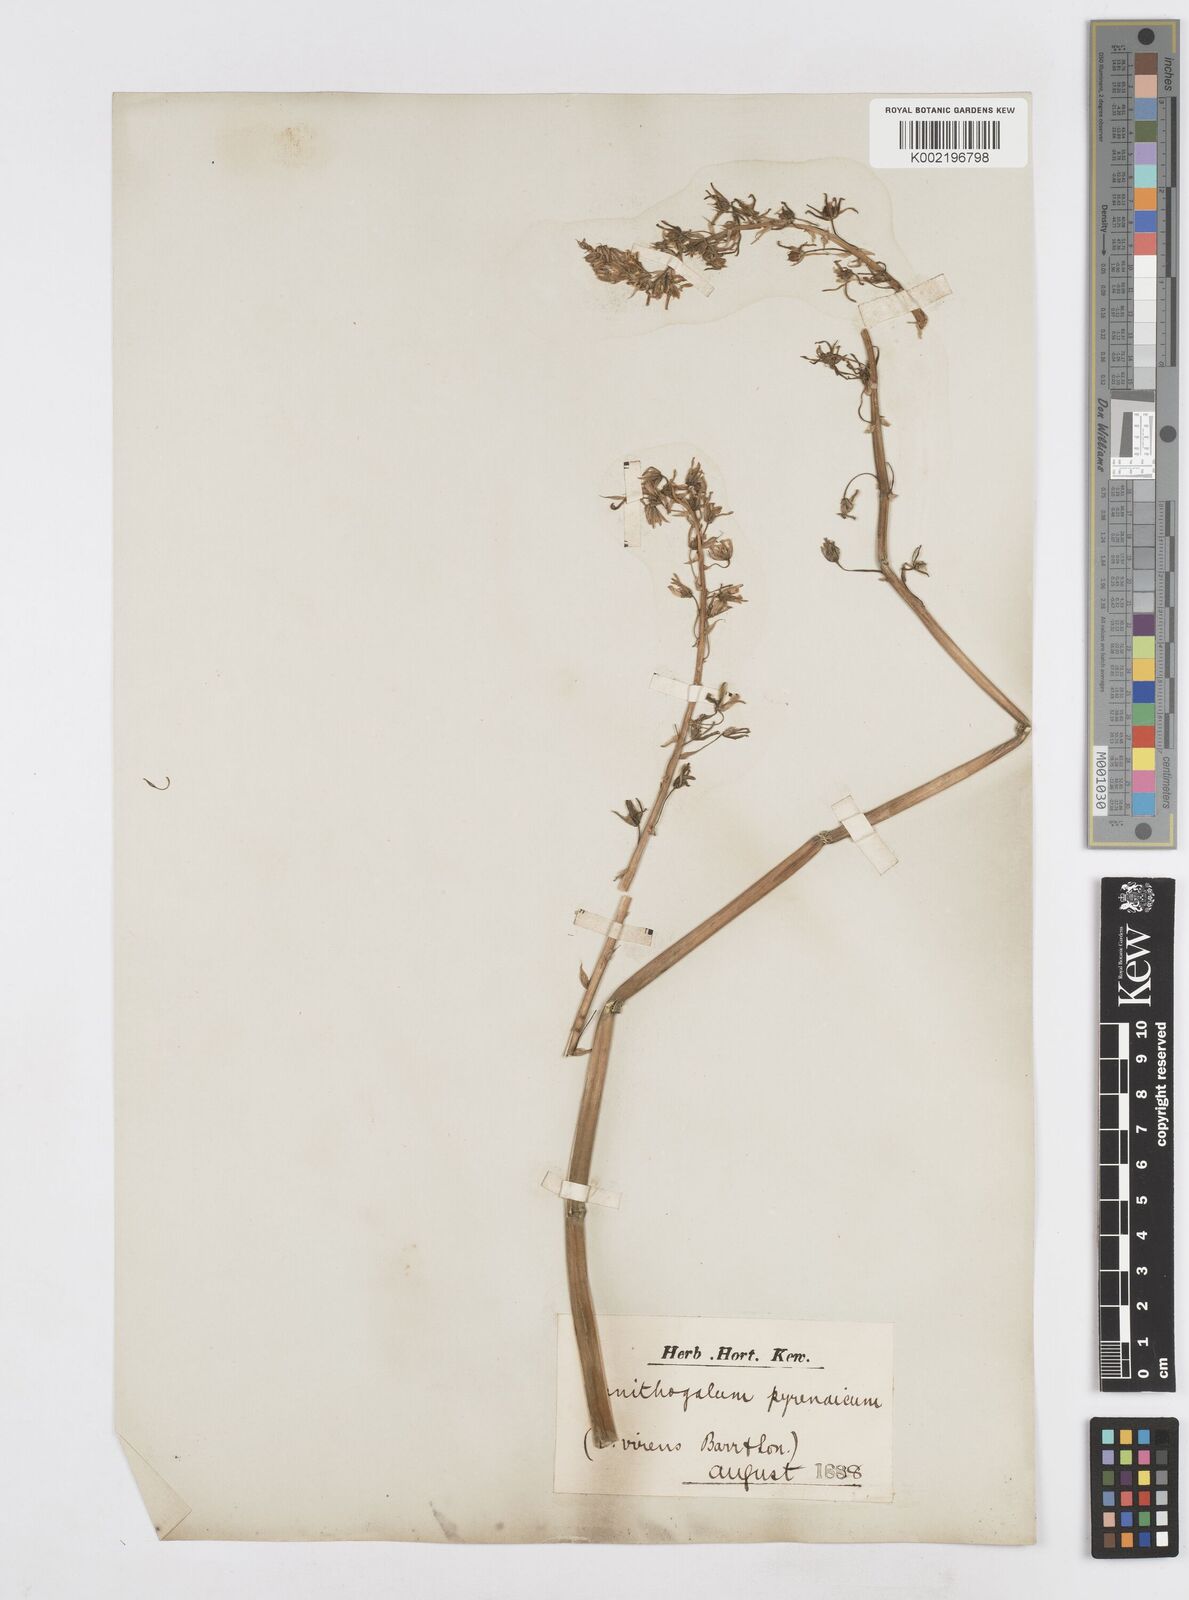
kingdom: Plantae
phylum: Tracheophyta
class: Liliopsida
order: Asparagales
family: Asparagaceae
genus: Ornithogalum
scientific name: Ornithogalum pyrenaicum
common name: Spiked star-of-bethlehem
